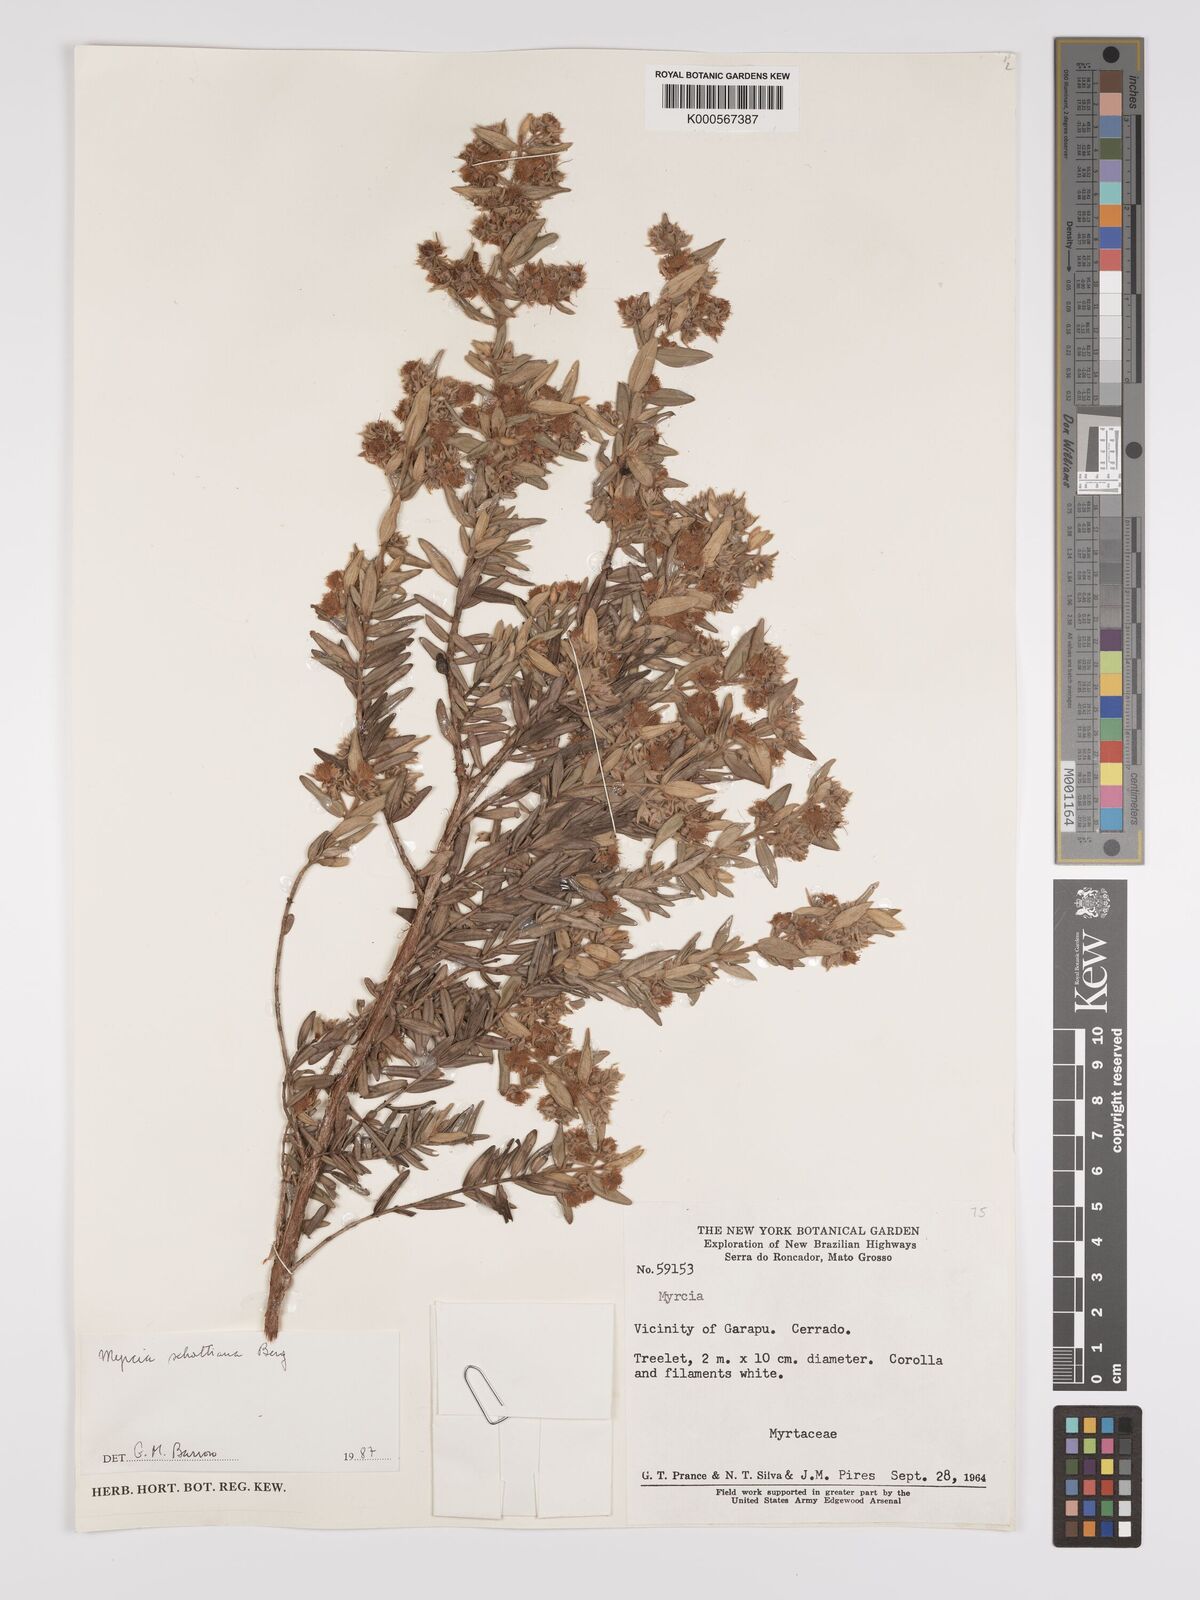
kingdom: Plantae
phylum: Tracheophyta
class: Magnoliopsida
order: Myrtales
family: Myrtaceae
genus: Myrcia
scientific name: Myrcia schottiana
